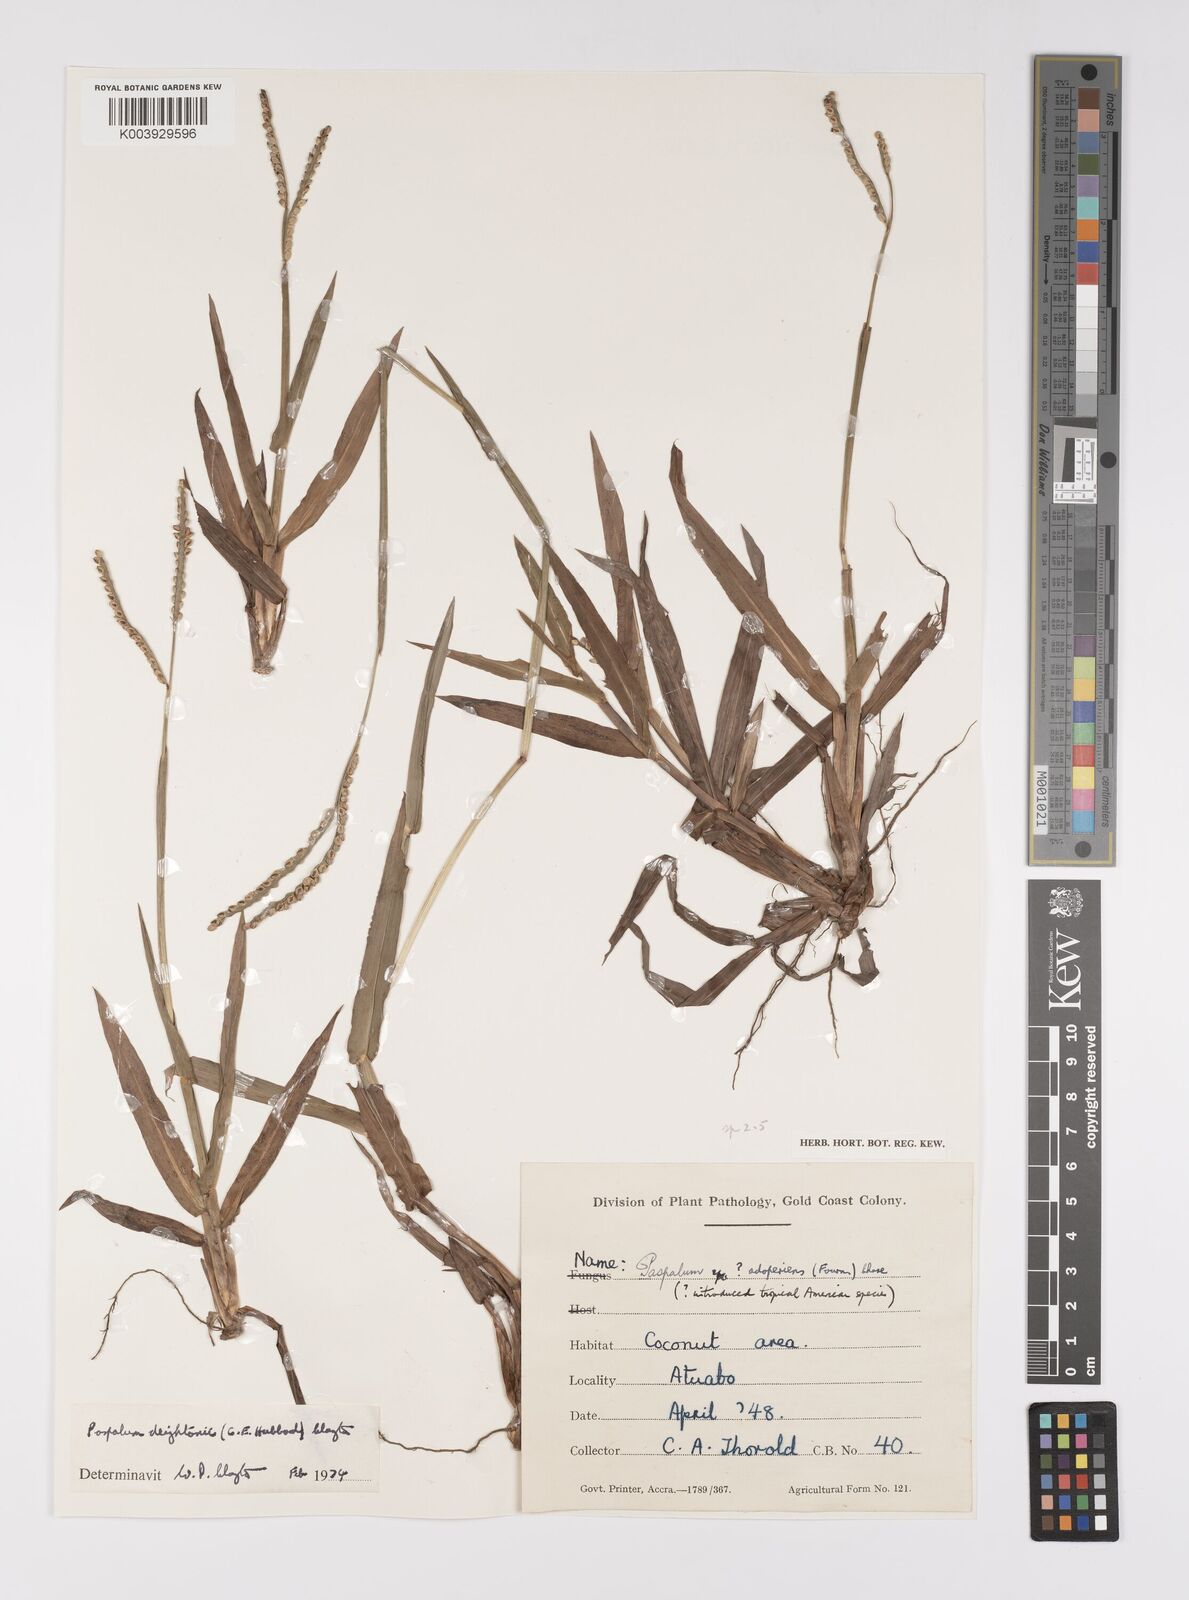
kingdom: Plantae
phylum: Tracheophyta
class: Liliopsida
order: Poales
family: Poaceae
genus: Paspalum
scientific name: Paspalum scrobiculatum
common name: Kodo millet
